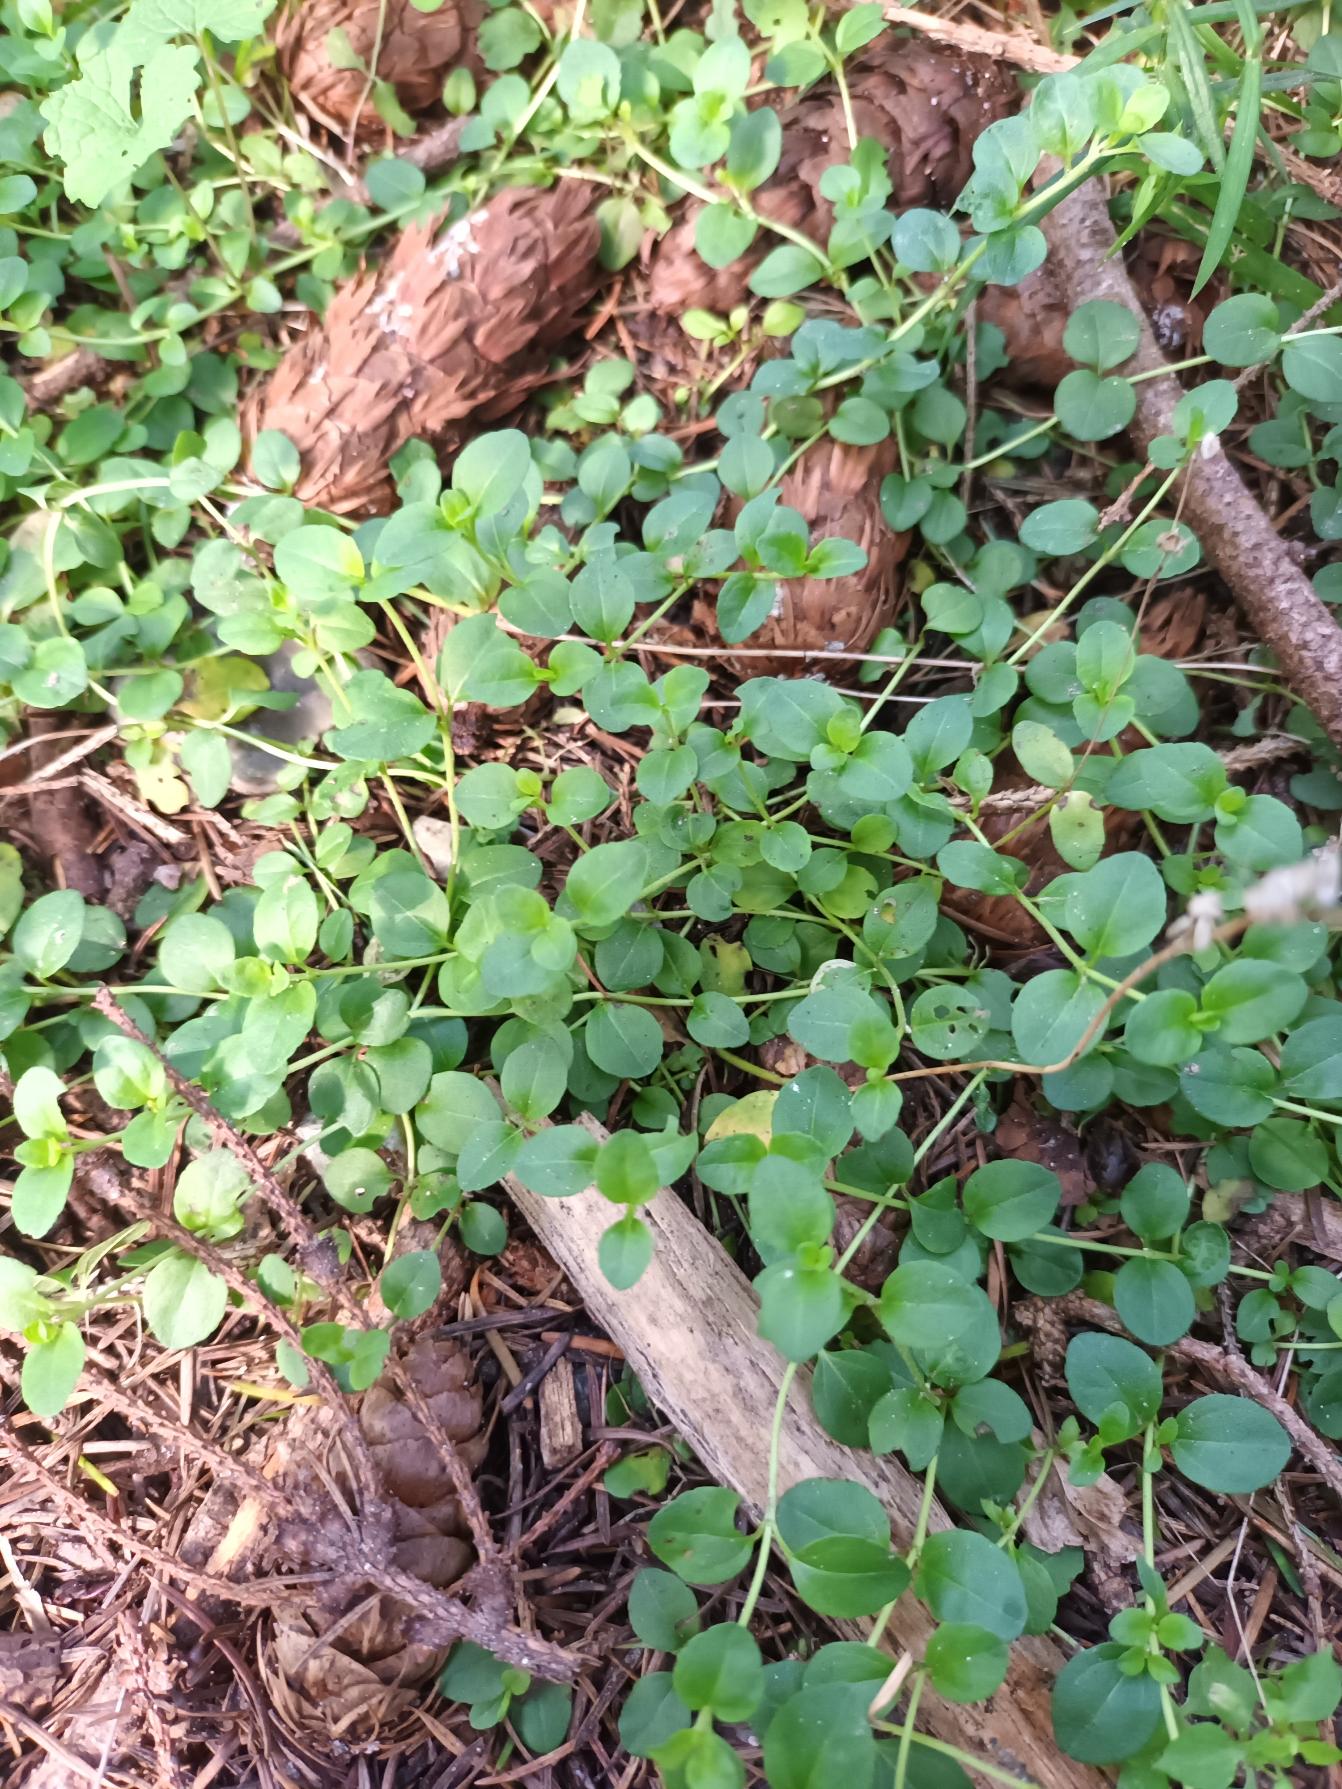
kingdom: Plantae
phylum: Tracheophyta
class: Magnoliopsida
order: Lamiales
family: Plantaginaceae
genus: Veronica
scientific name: Veronica serpyllifolia
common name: Glat ærenpris
